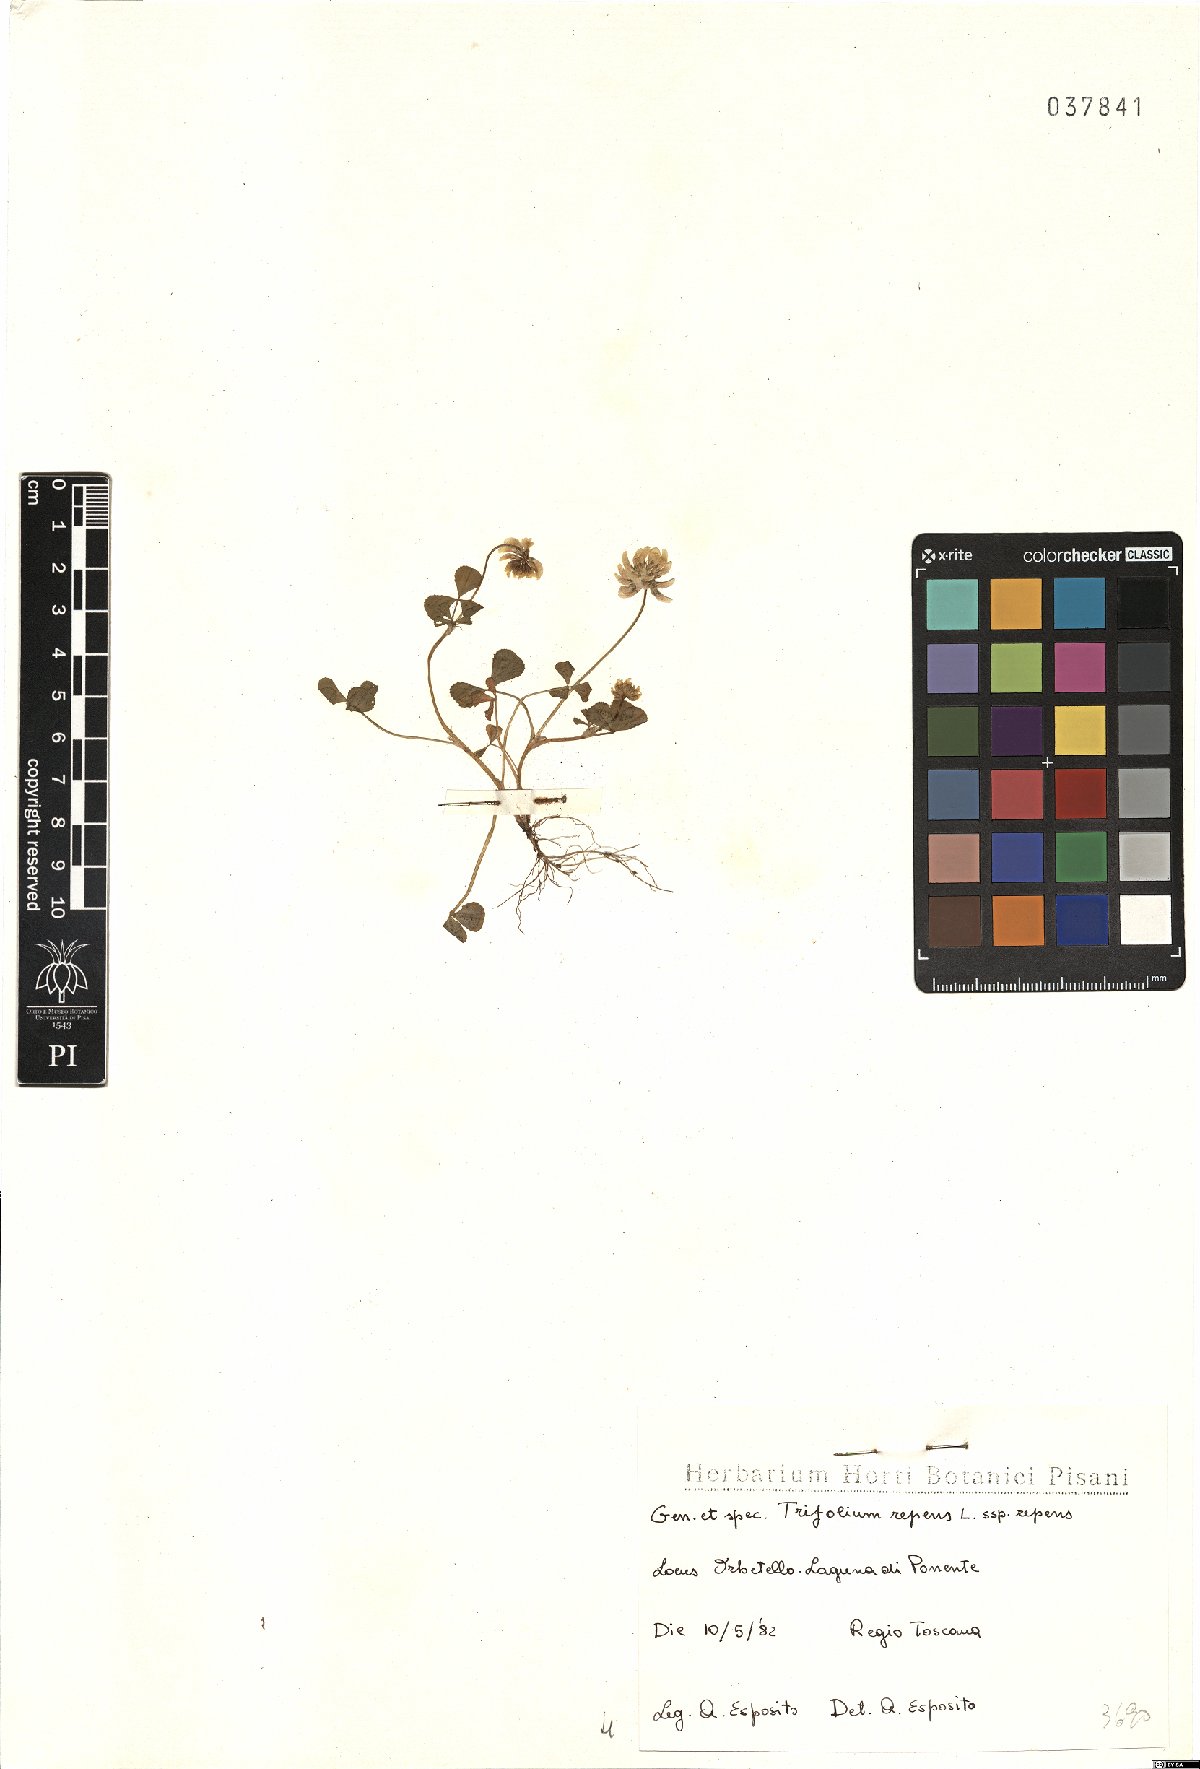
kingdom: Plantae
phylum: Tracheophyta
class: Magnoliopsida
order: Fabales
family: Fabaceae
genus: Trifolium
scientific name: Trifolium repens
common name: White clover
